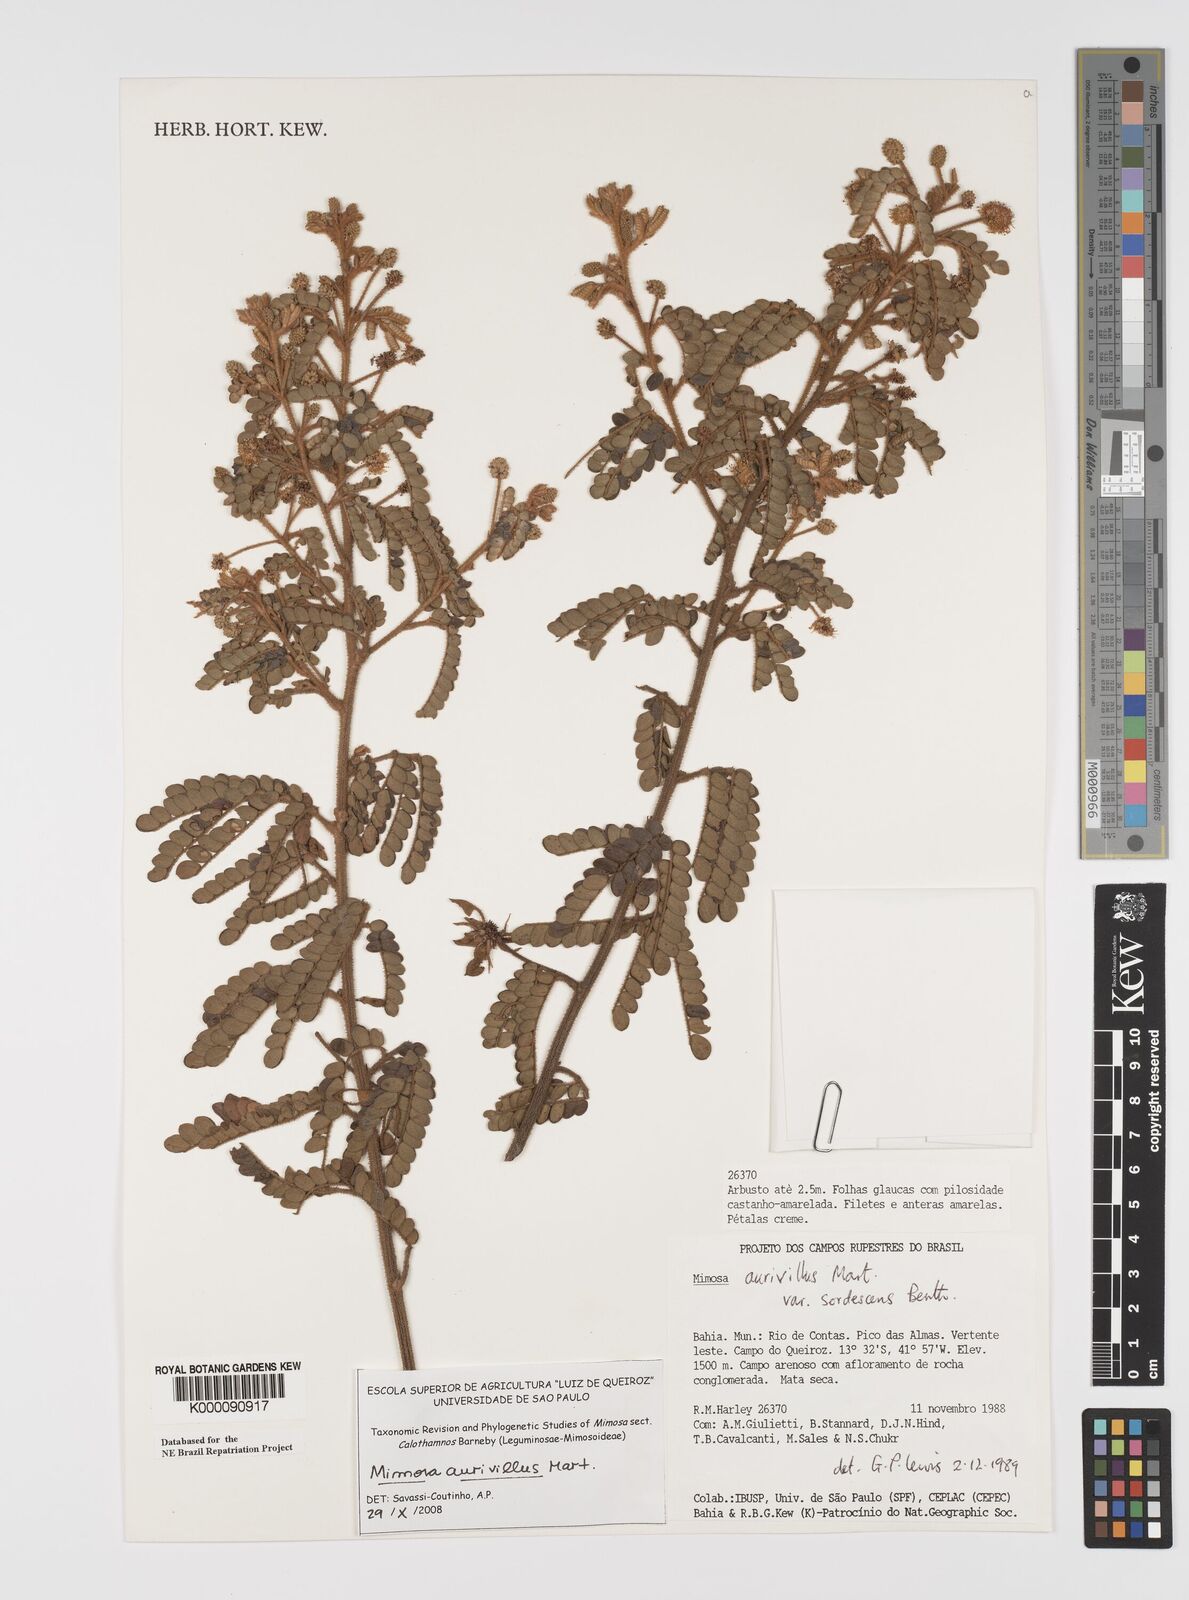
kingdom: Plantae
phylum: Tracheophyta
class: Magnoliopsida
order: Fabales
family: Fabaceae
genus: Mimosa
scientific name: Mimosa aurivillus
